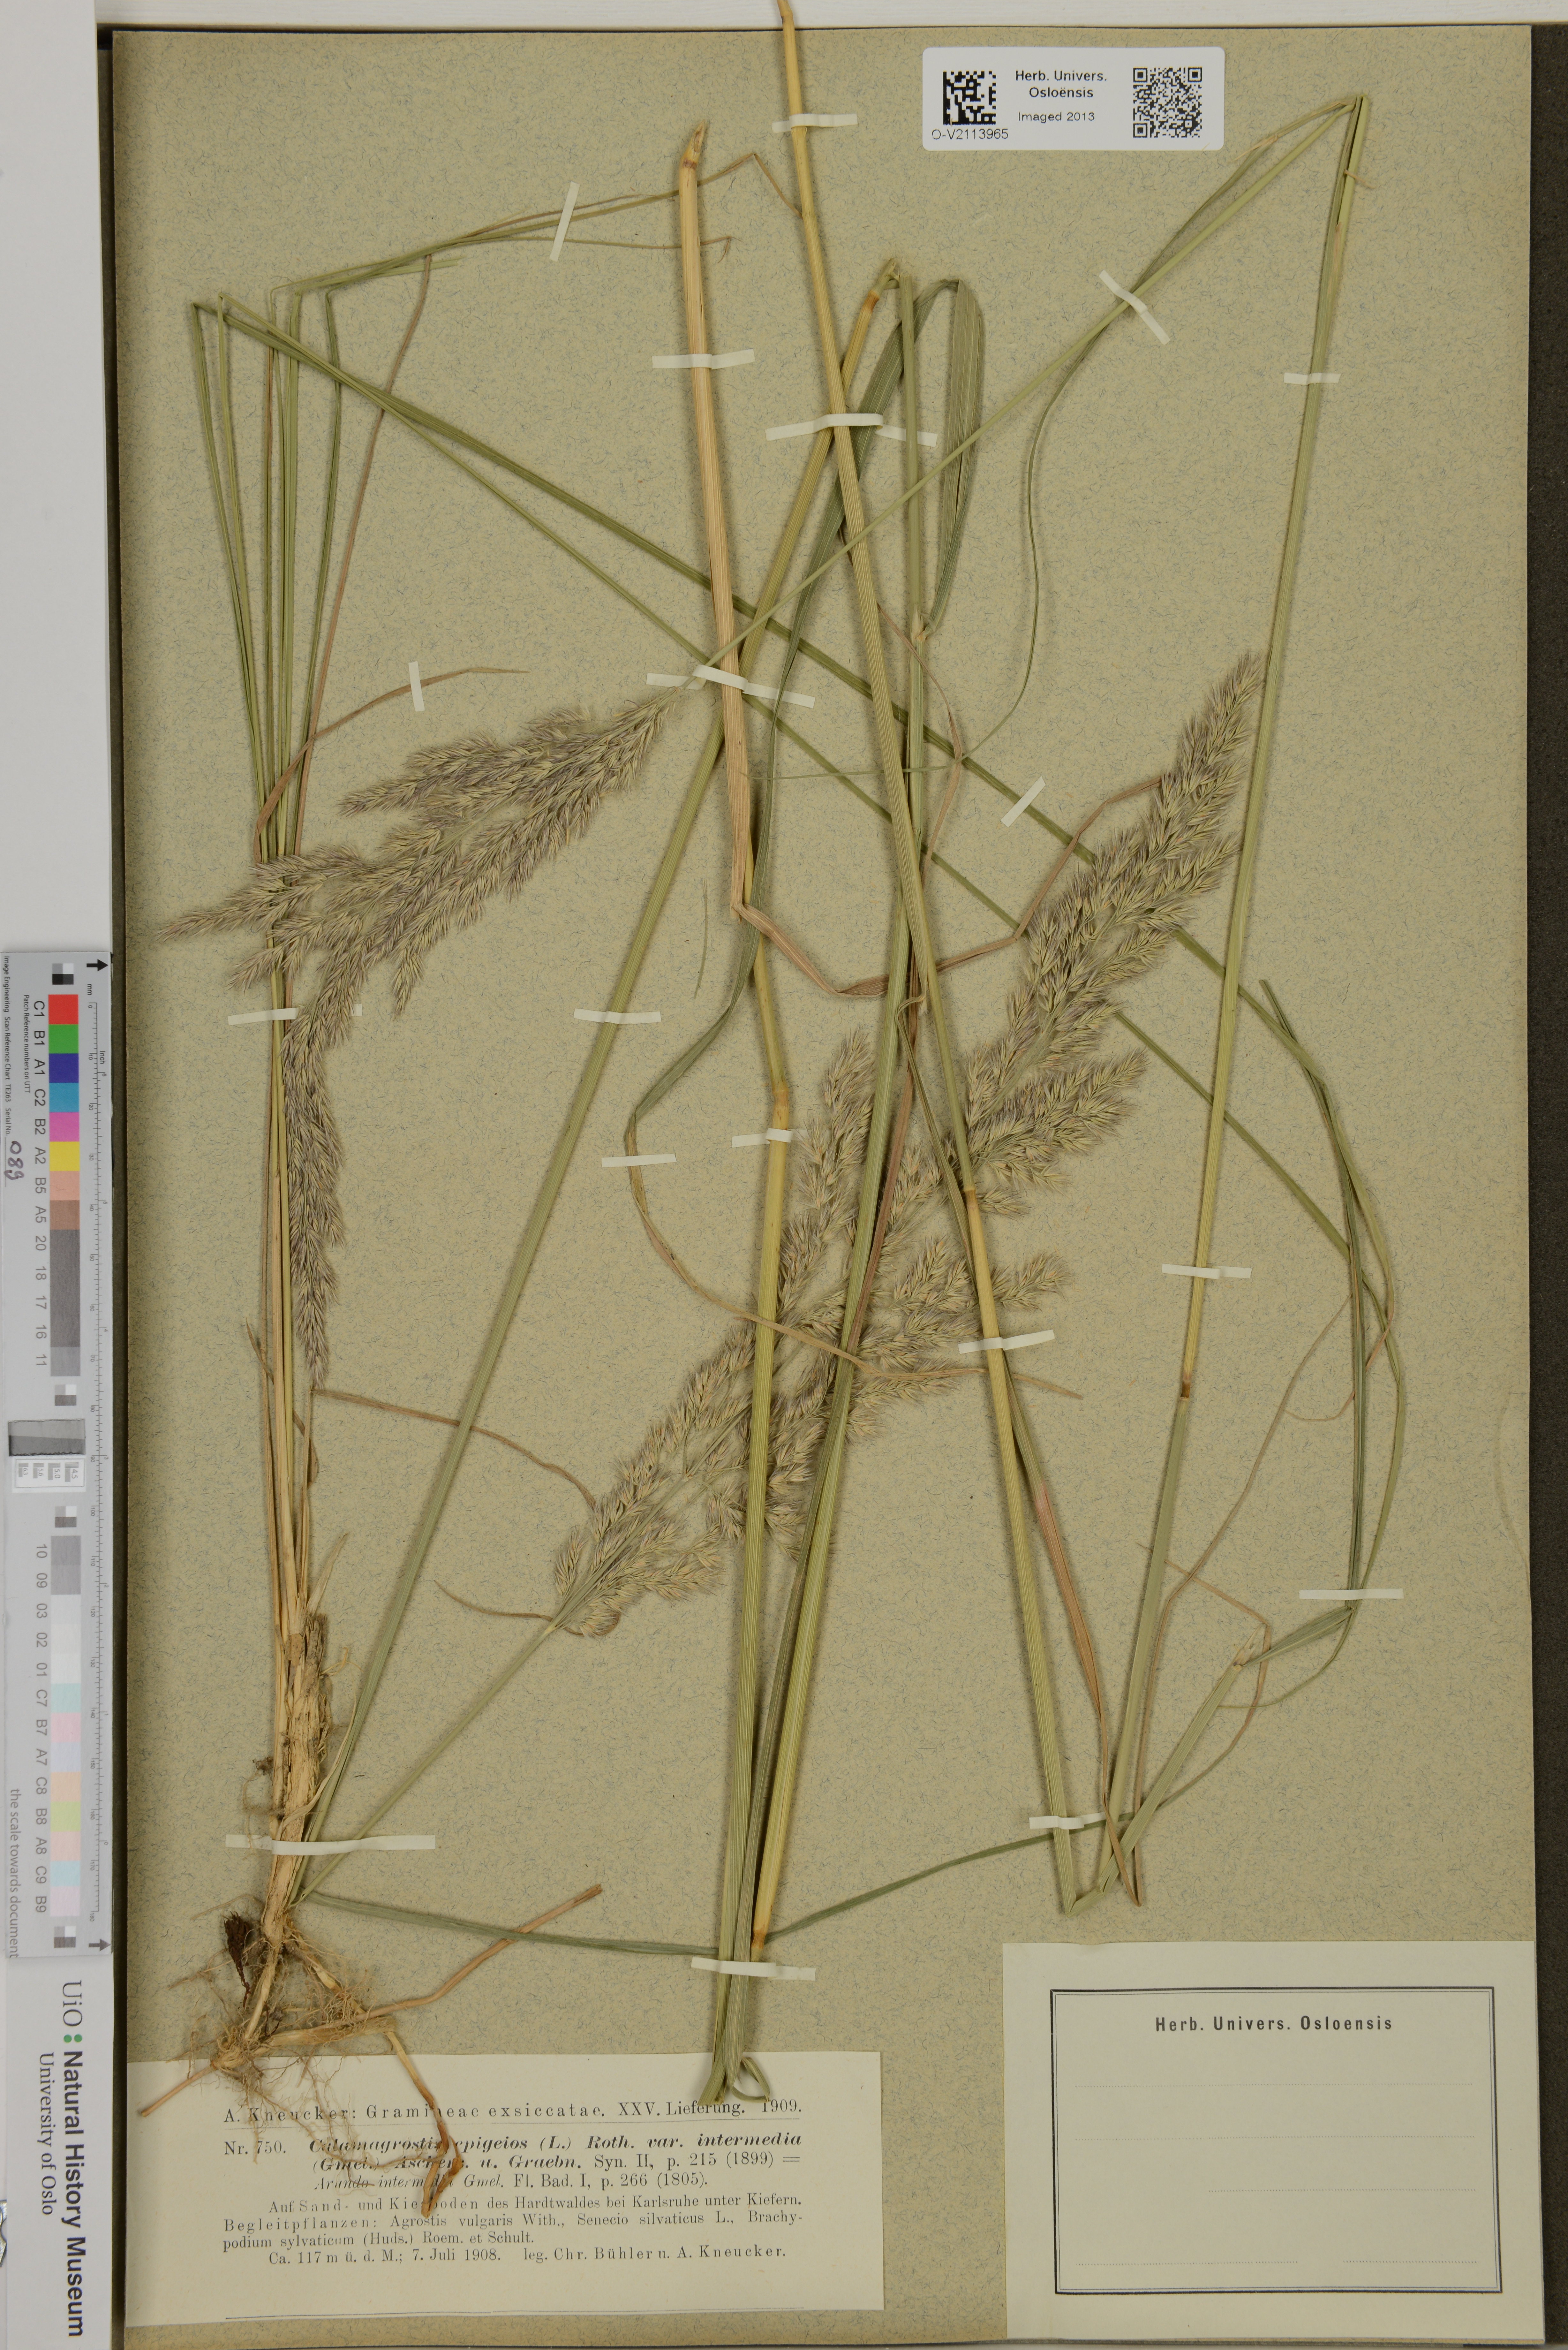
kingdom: Plantae
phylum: Tracheophyta
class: Liliopsida
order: Poales
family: Poaceae
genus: Calamagrostis
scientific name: Calamagrostis epigeios
